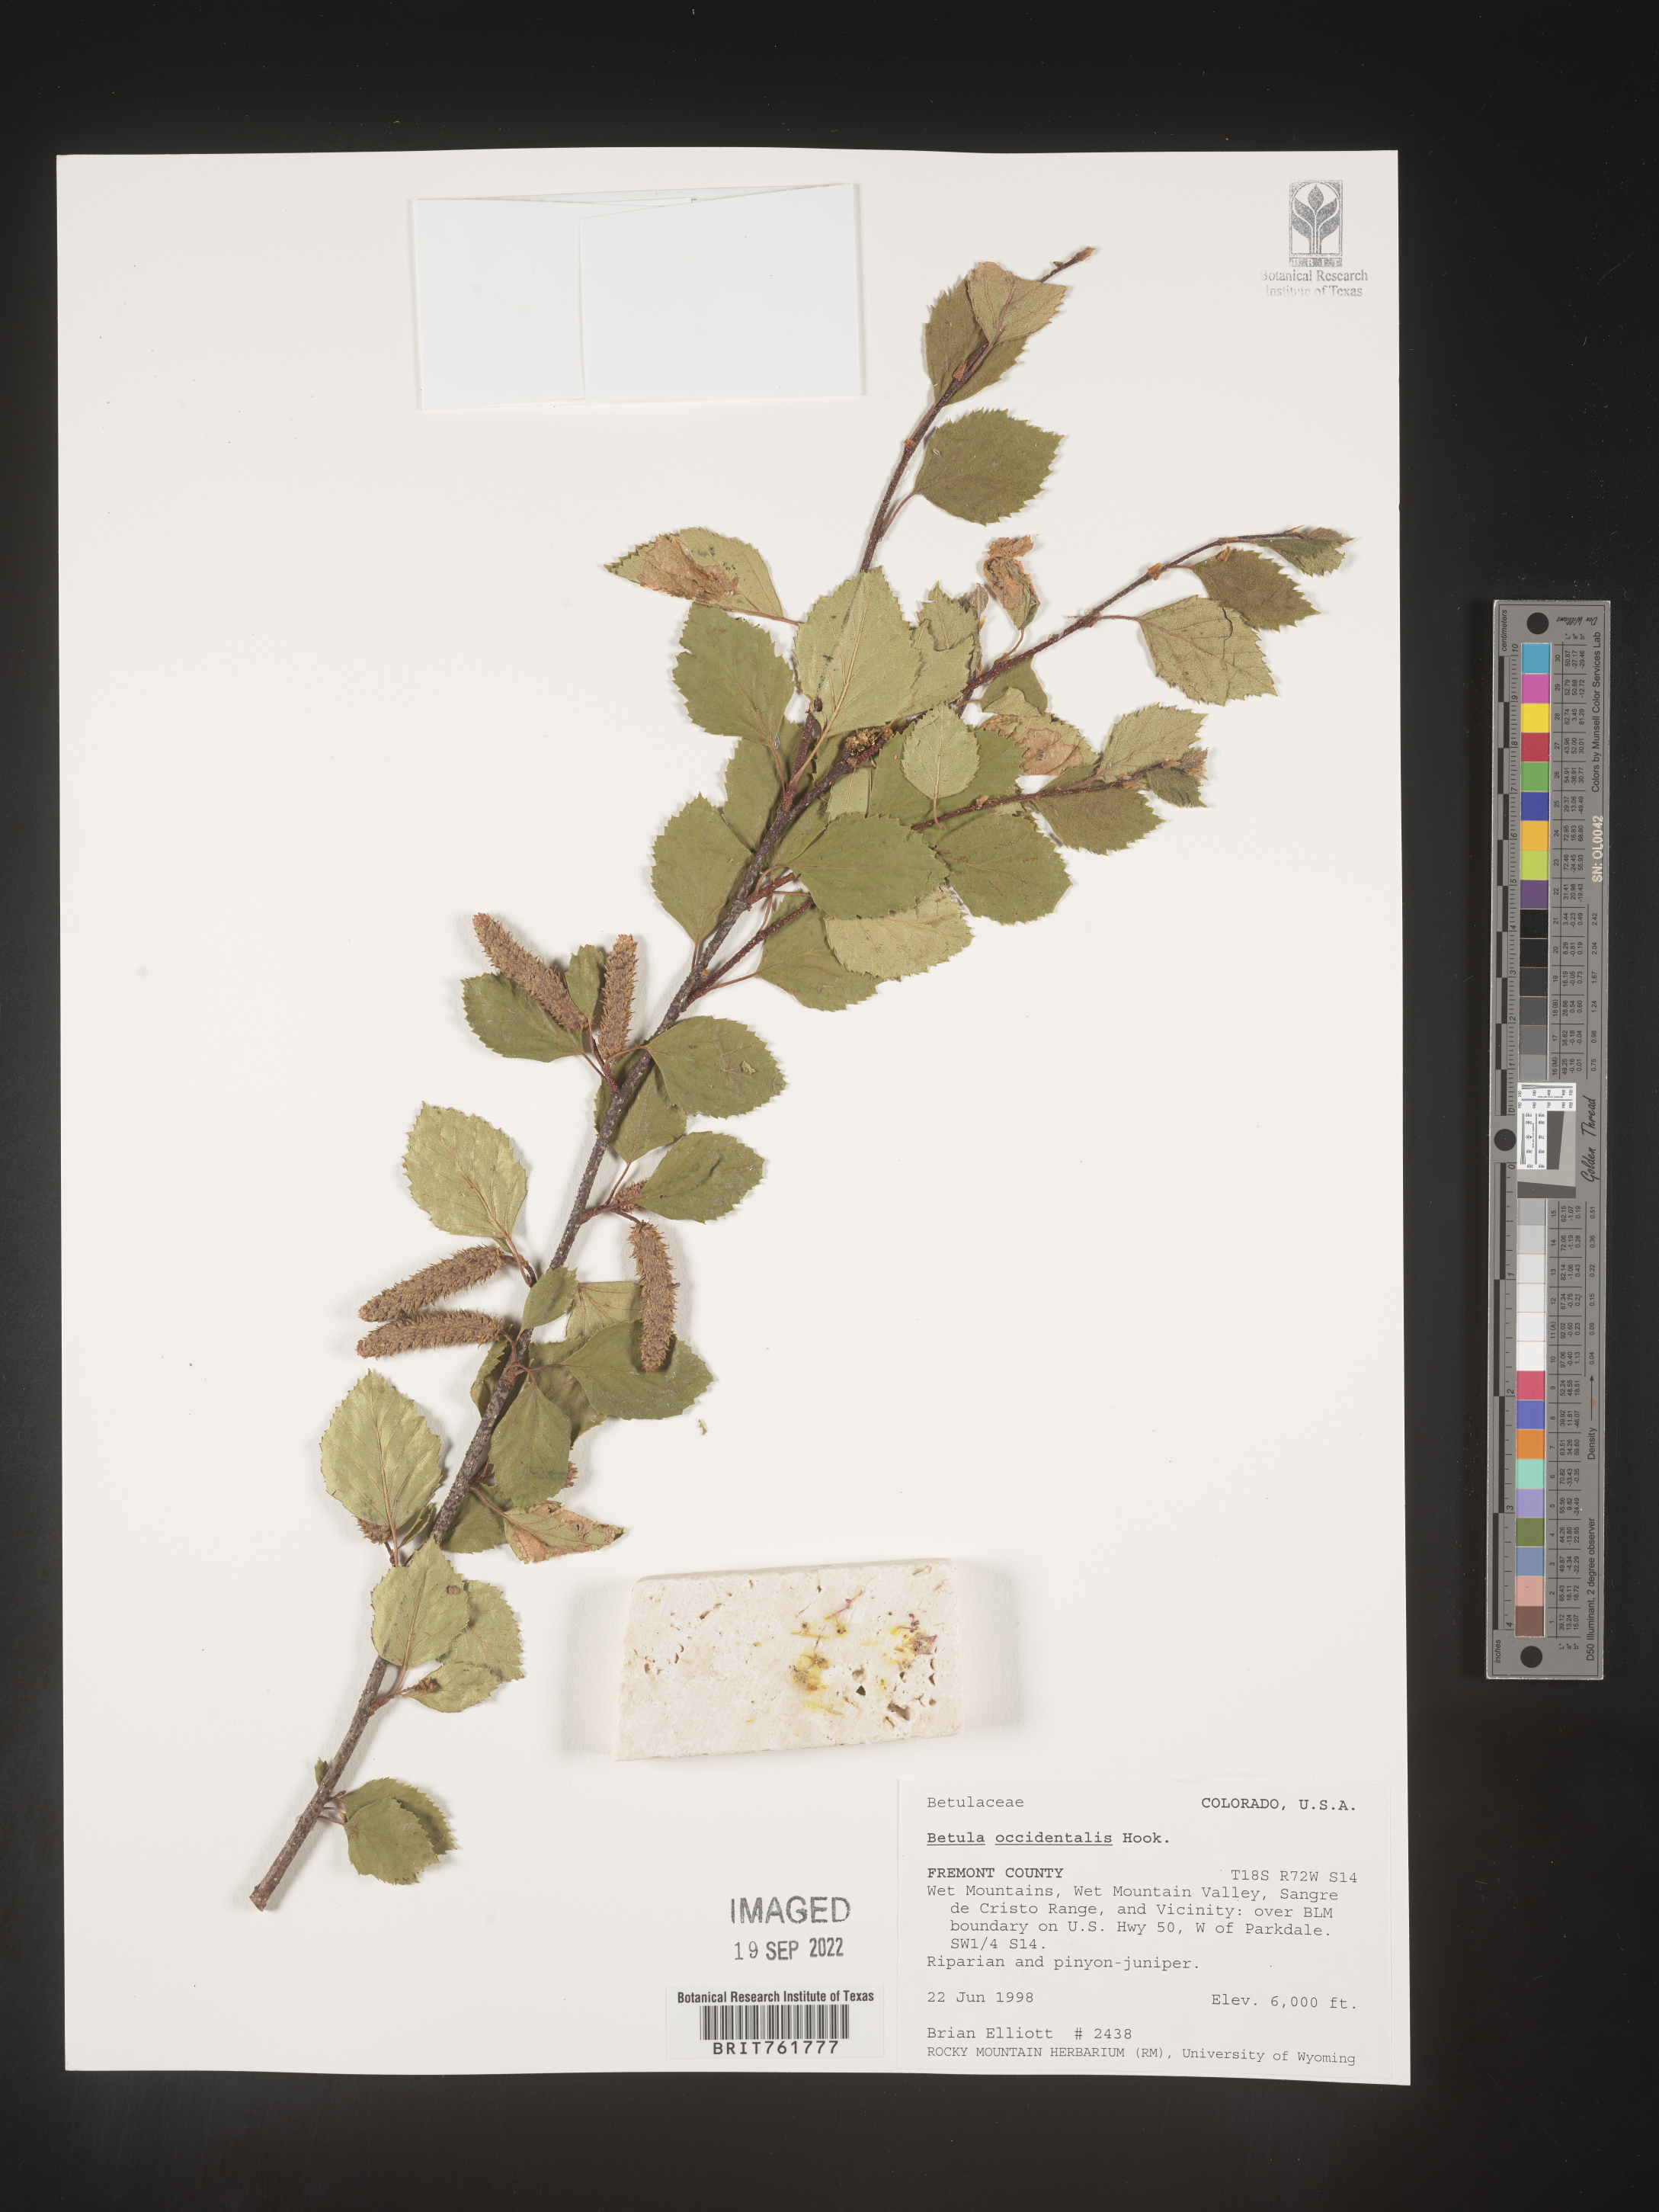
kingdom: Plantae
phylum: Tracheophyta
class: Magnoliopsida
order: Fagales
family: Betulaceae
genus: Betula
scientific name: Betula occidentalis
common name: River birch
